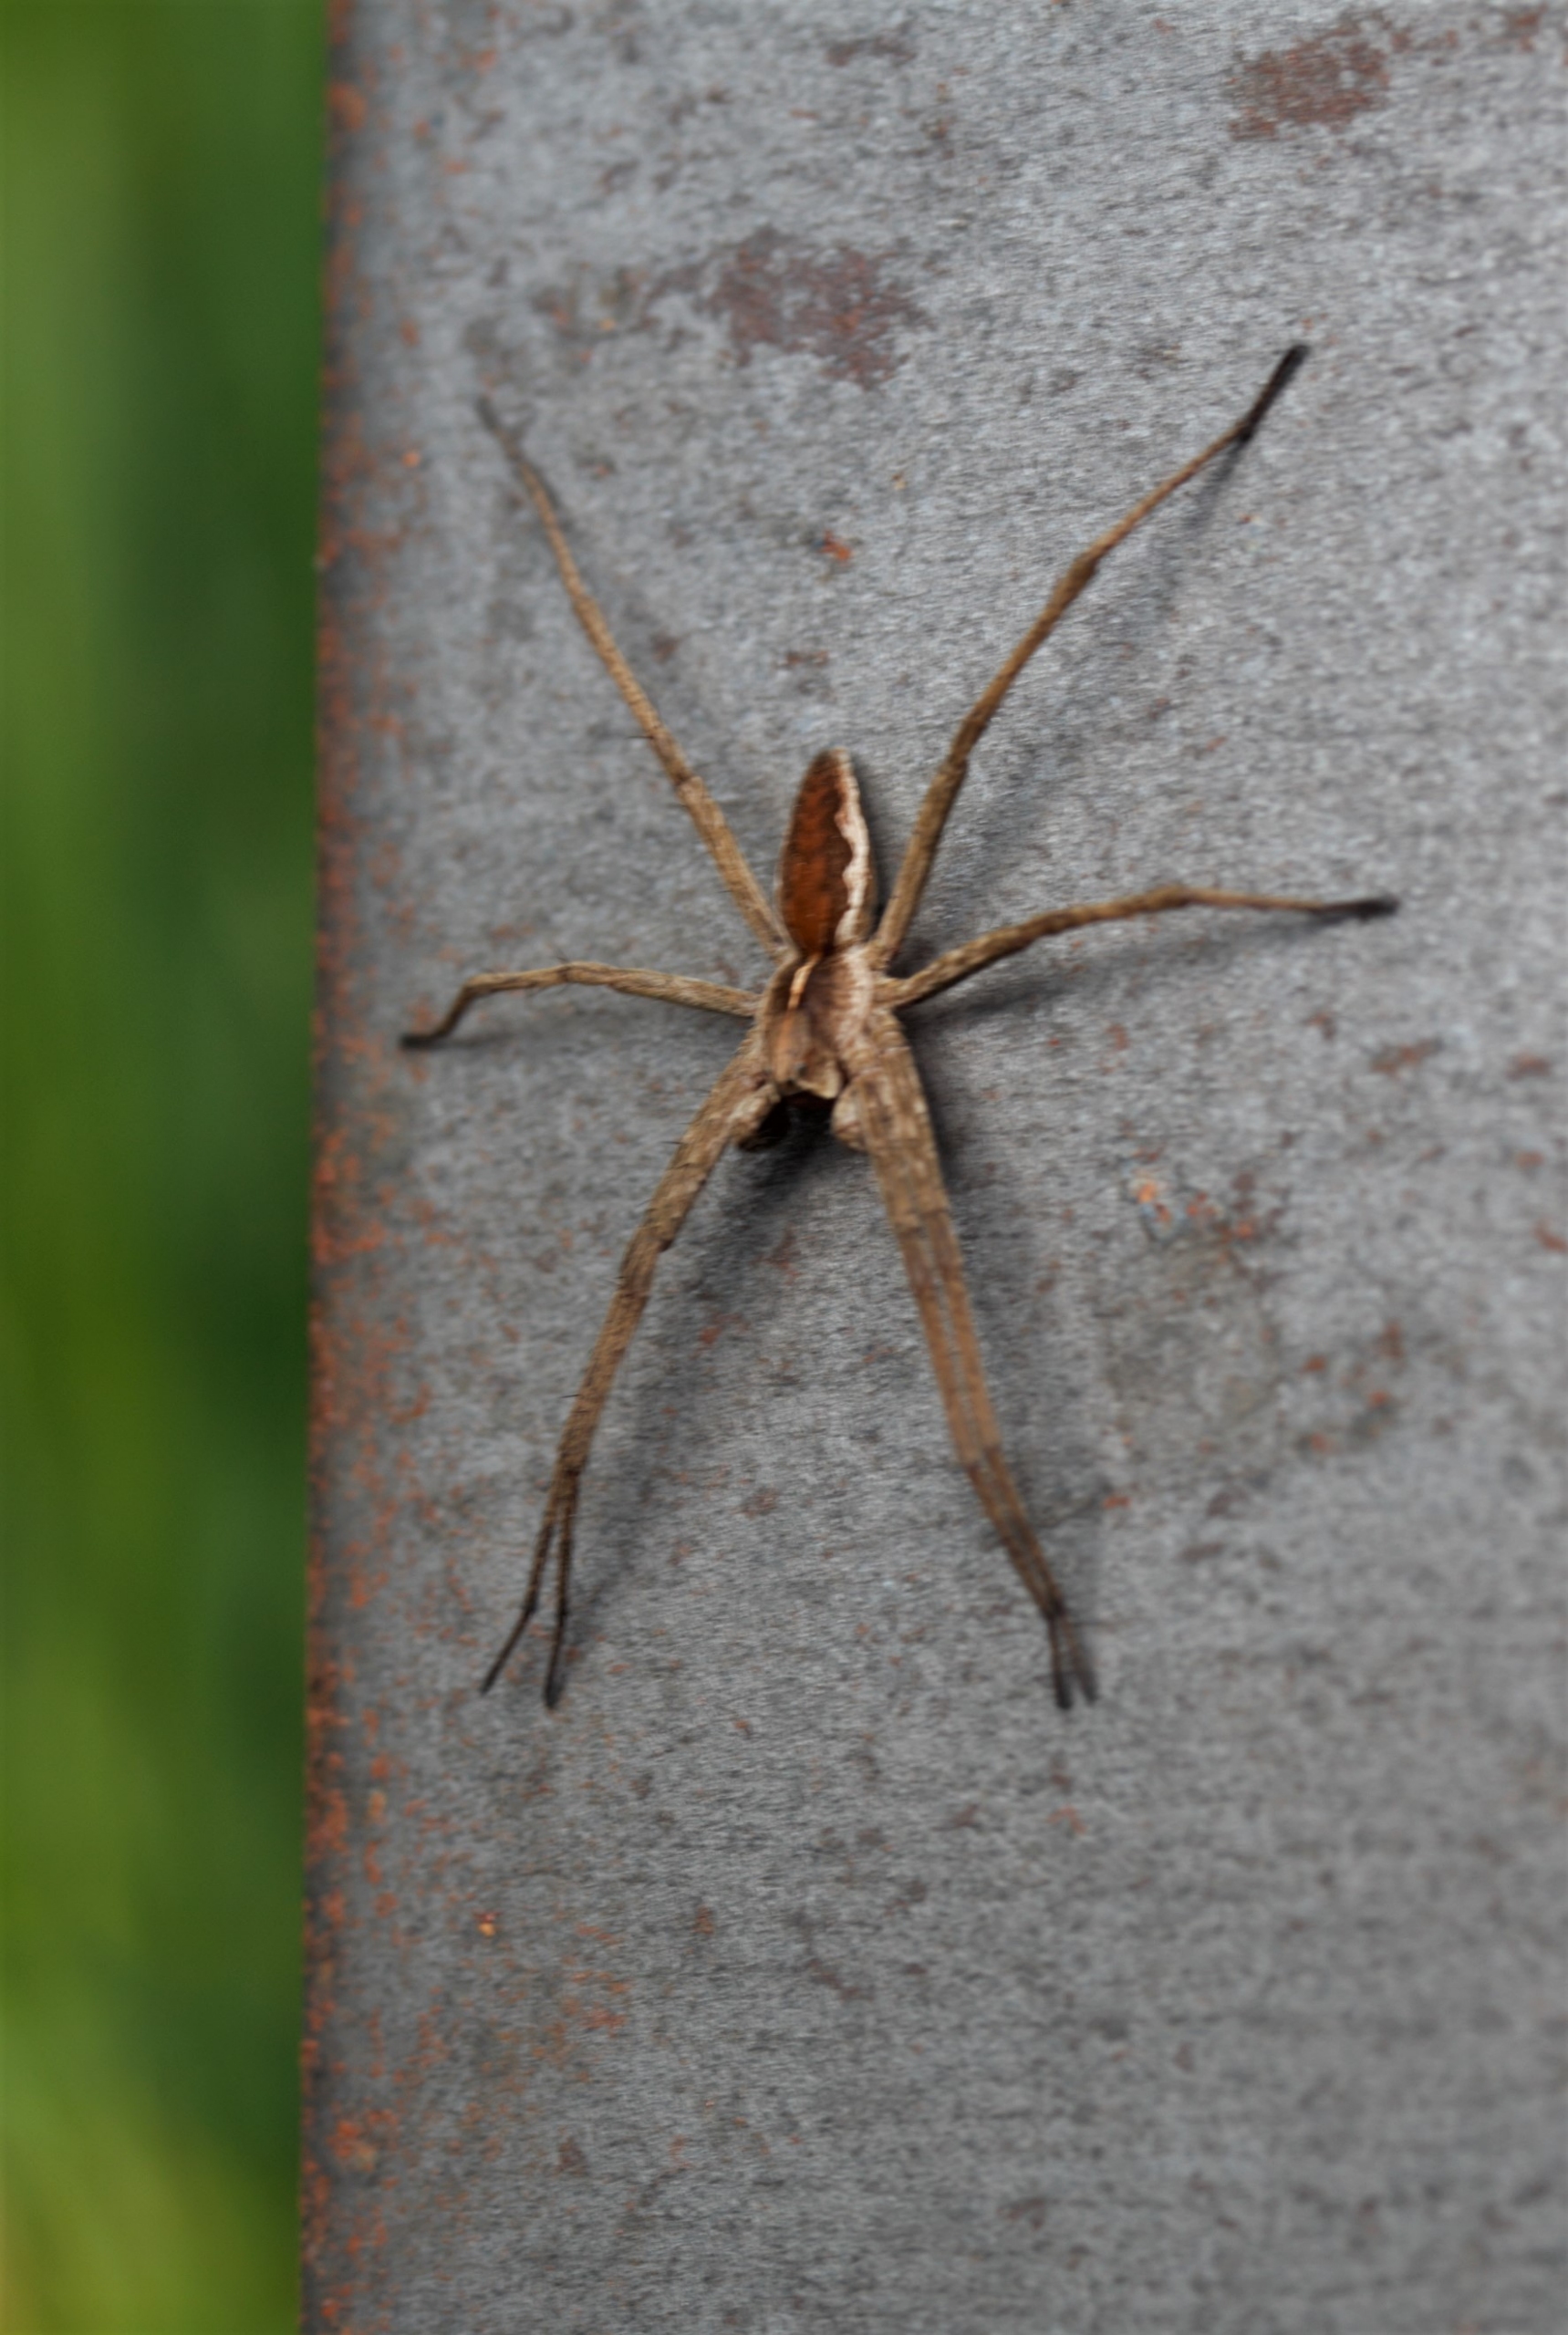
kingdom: Animalia
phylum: Arthropoda
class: Arachnida
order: Araneae
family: Pisauridae
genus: Pisaura
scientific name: Pisaura mirabilis
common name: Almindelig rovedderkop
